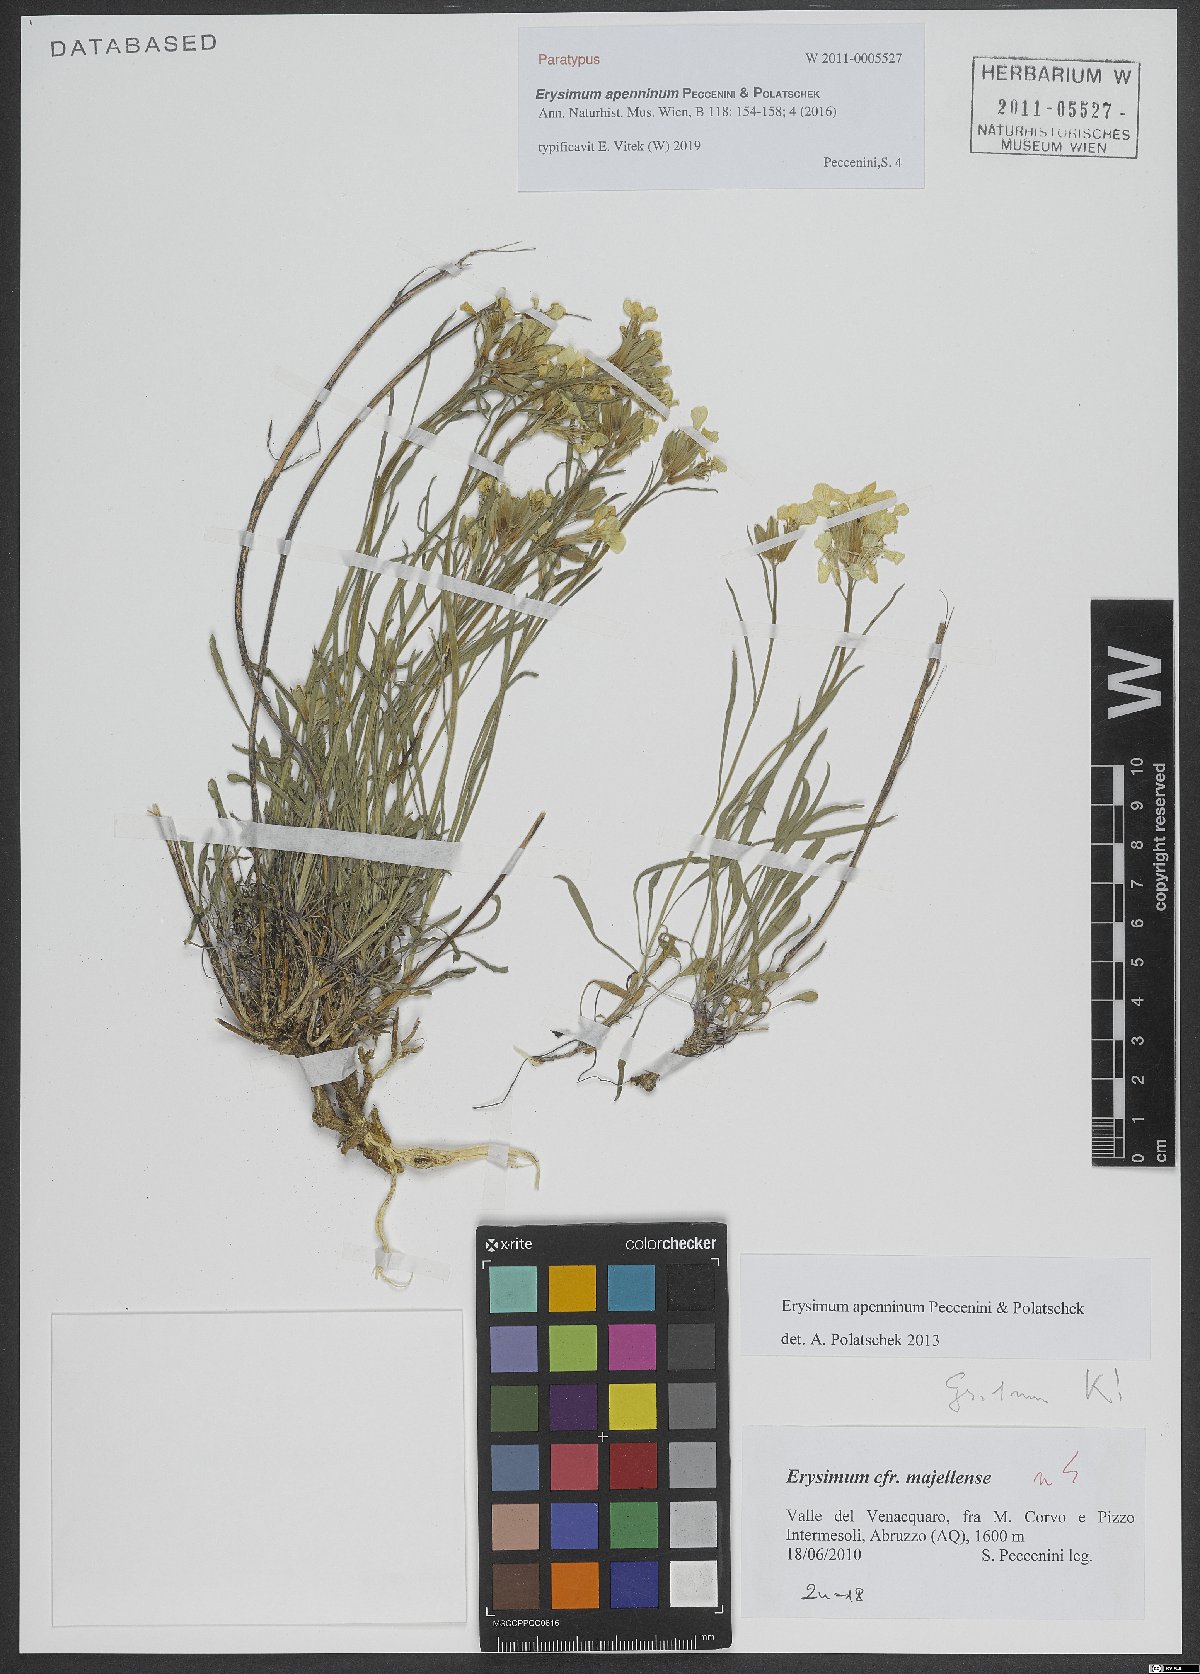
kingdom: Plantae
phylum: Tracheophyta
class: Magnoliopsida
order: Brassicales
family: Brassicaceae
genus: Erysimum
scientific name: Erysimum apenninum
